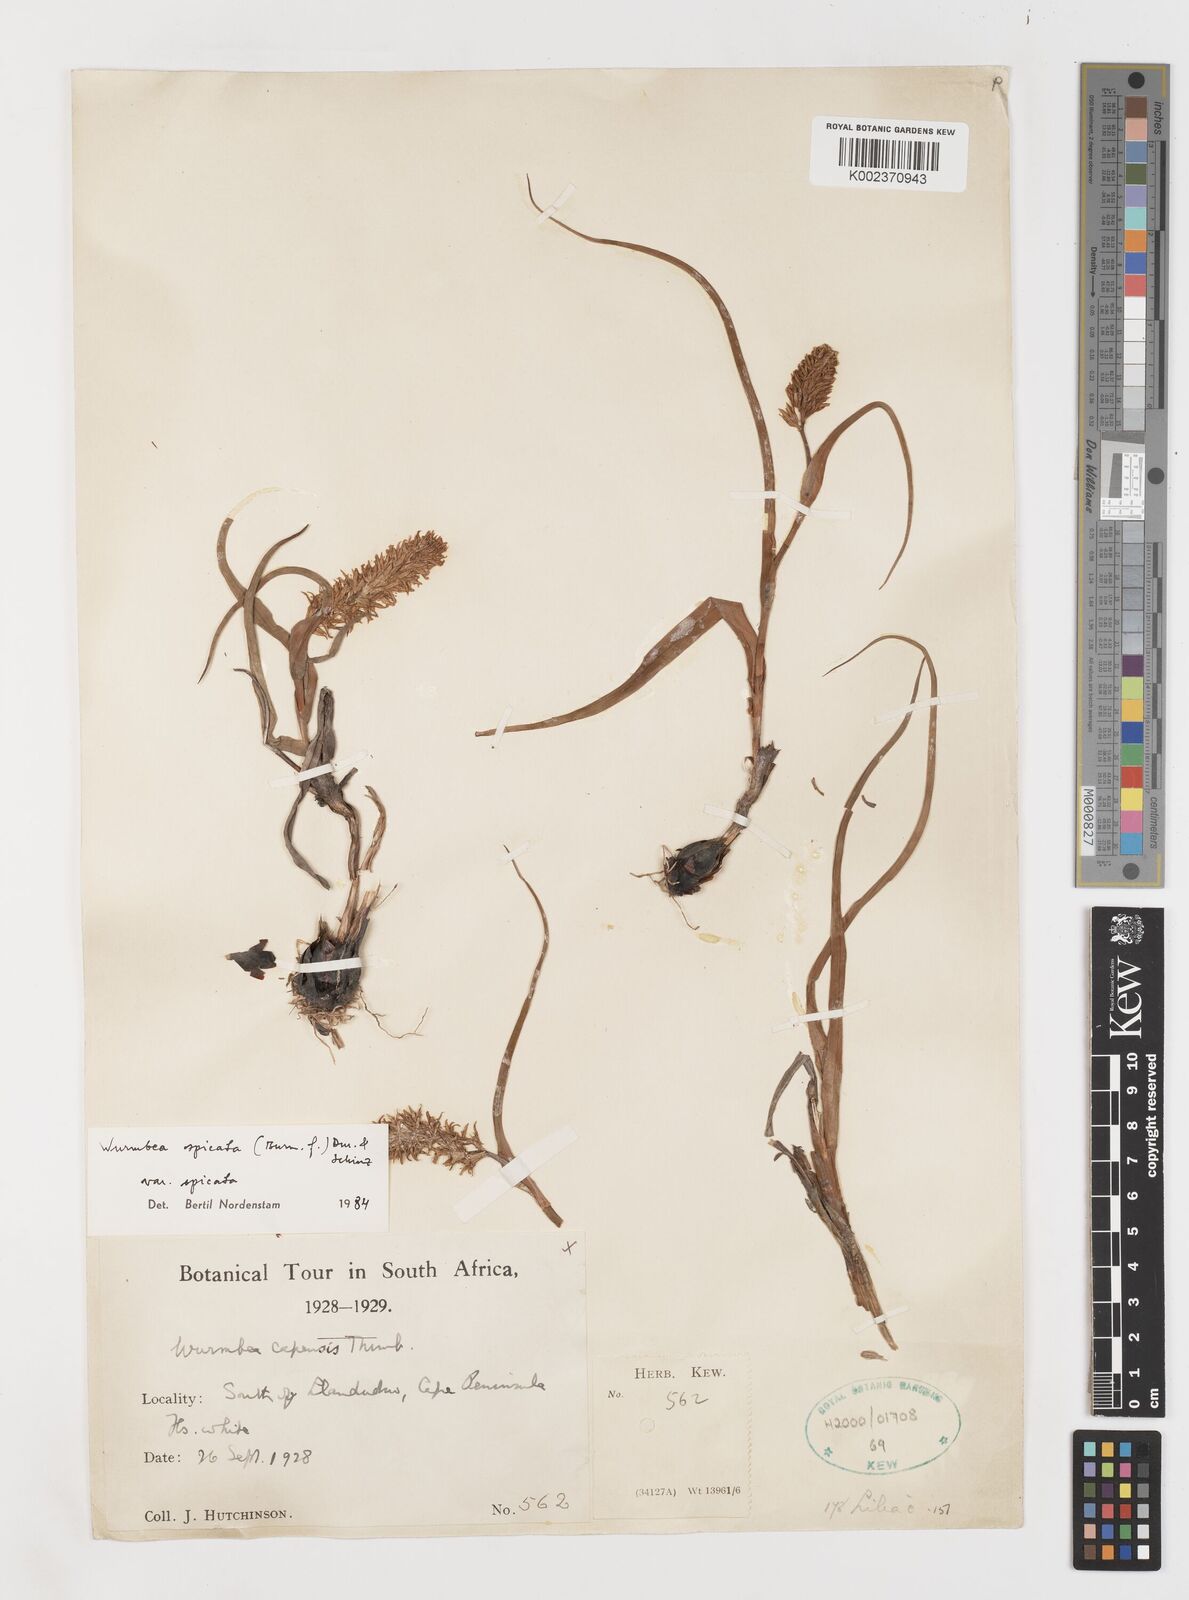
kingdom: Plantae
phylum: Tracheophyta
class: Liliopsida
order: Liliales
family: Colchicaceae
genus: Wurmbea
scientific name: Wurmbea spicata
